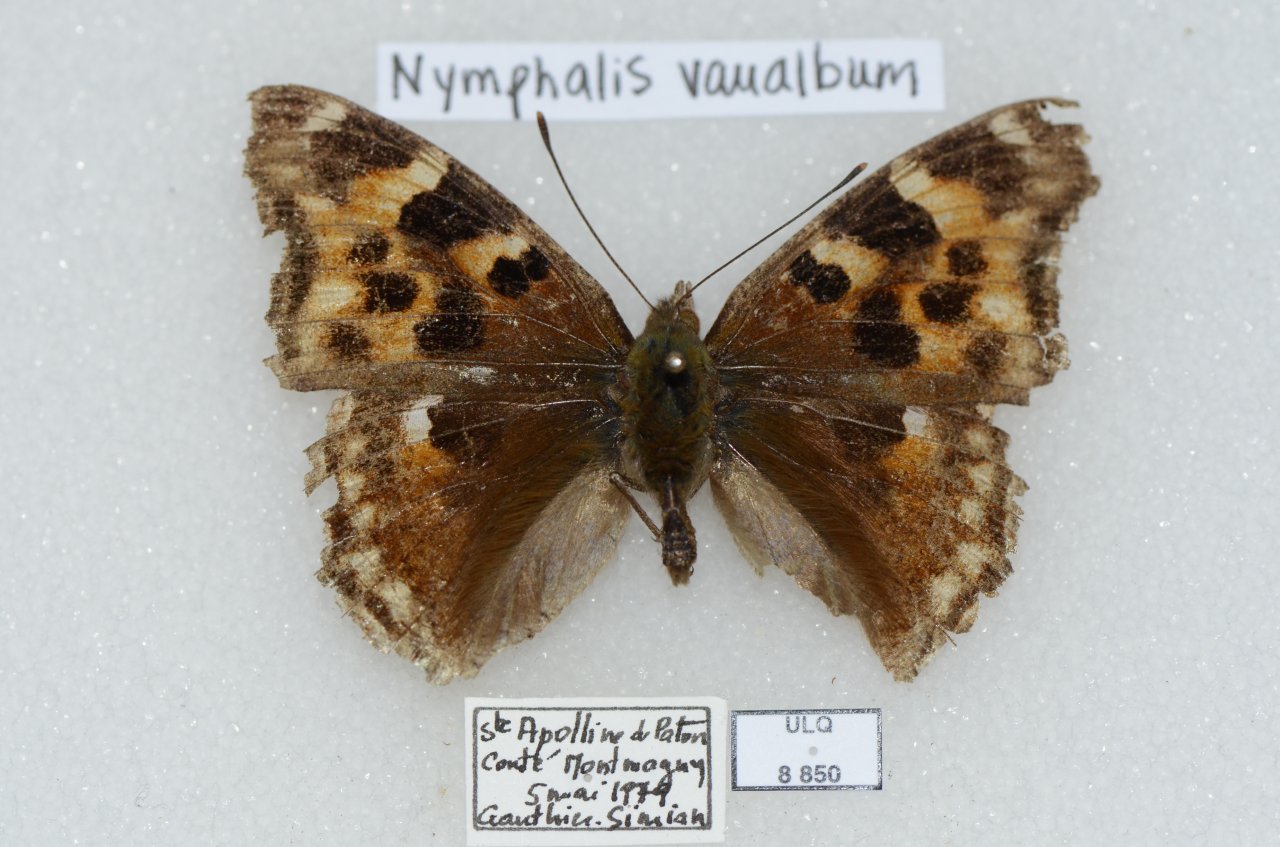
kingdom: Animalia
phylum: Arthropoda
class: Insecta
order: Lepidoptera
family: Nymphalidae
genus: Polygonia
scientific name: Polygonia vaualbum
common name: Compton Tortoiseshell
